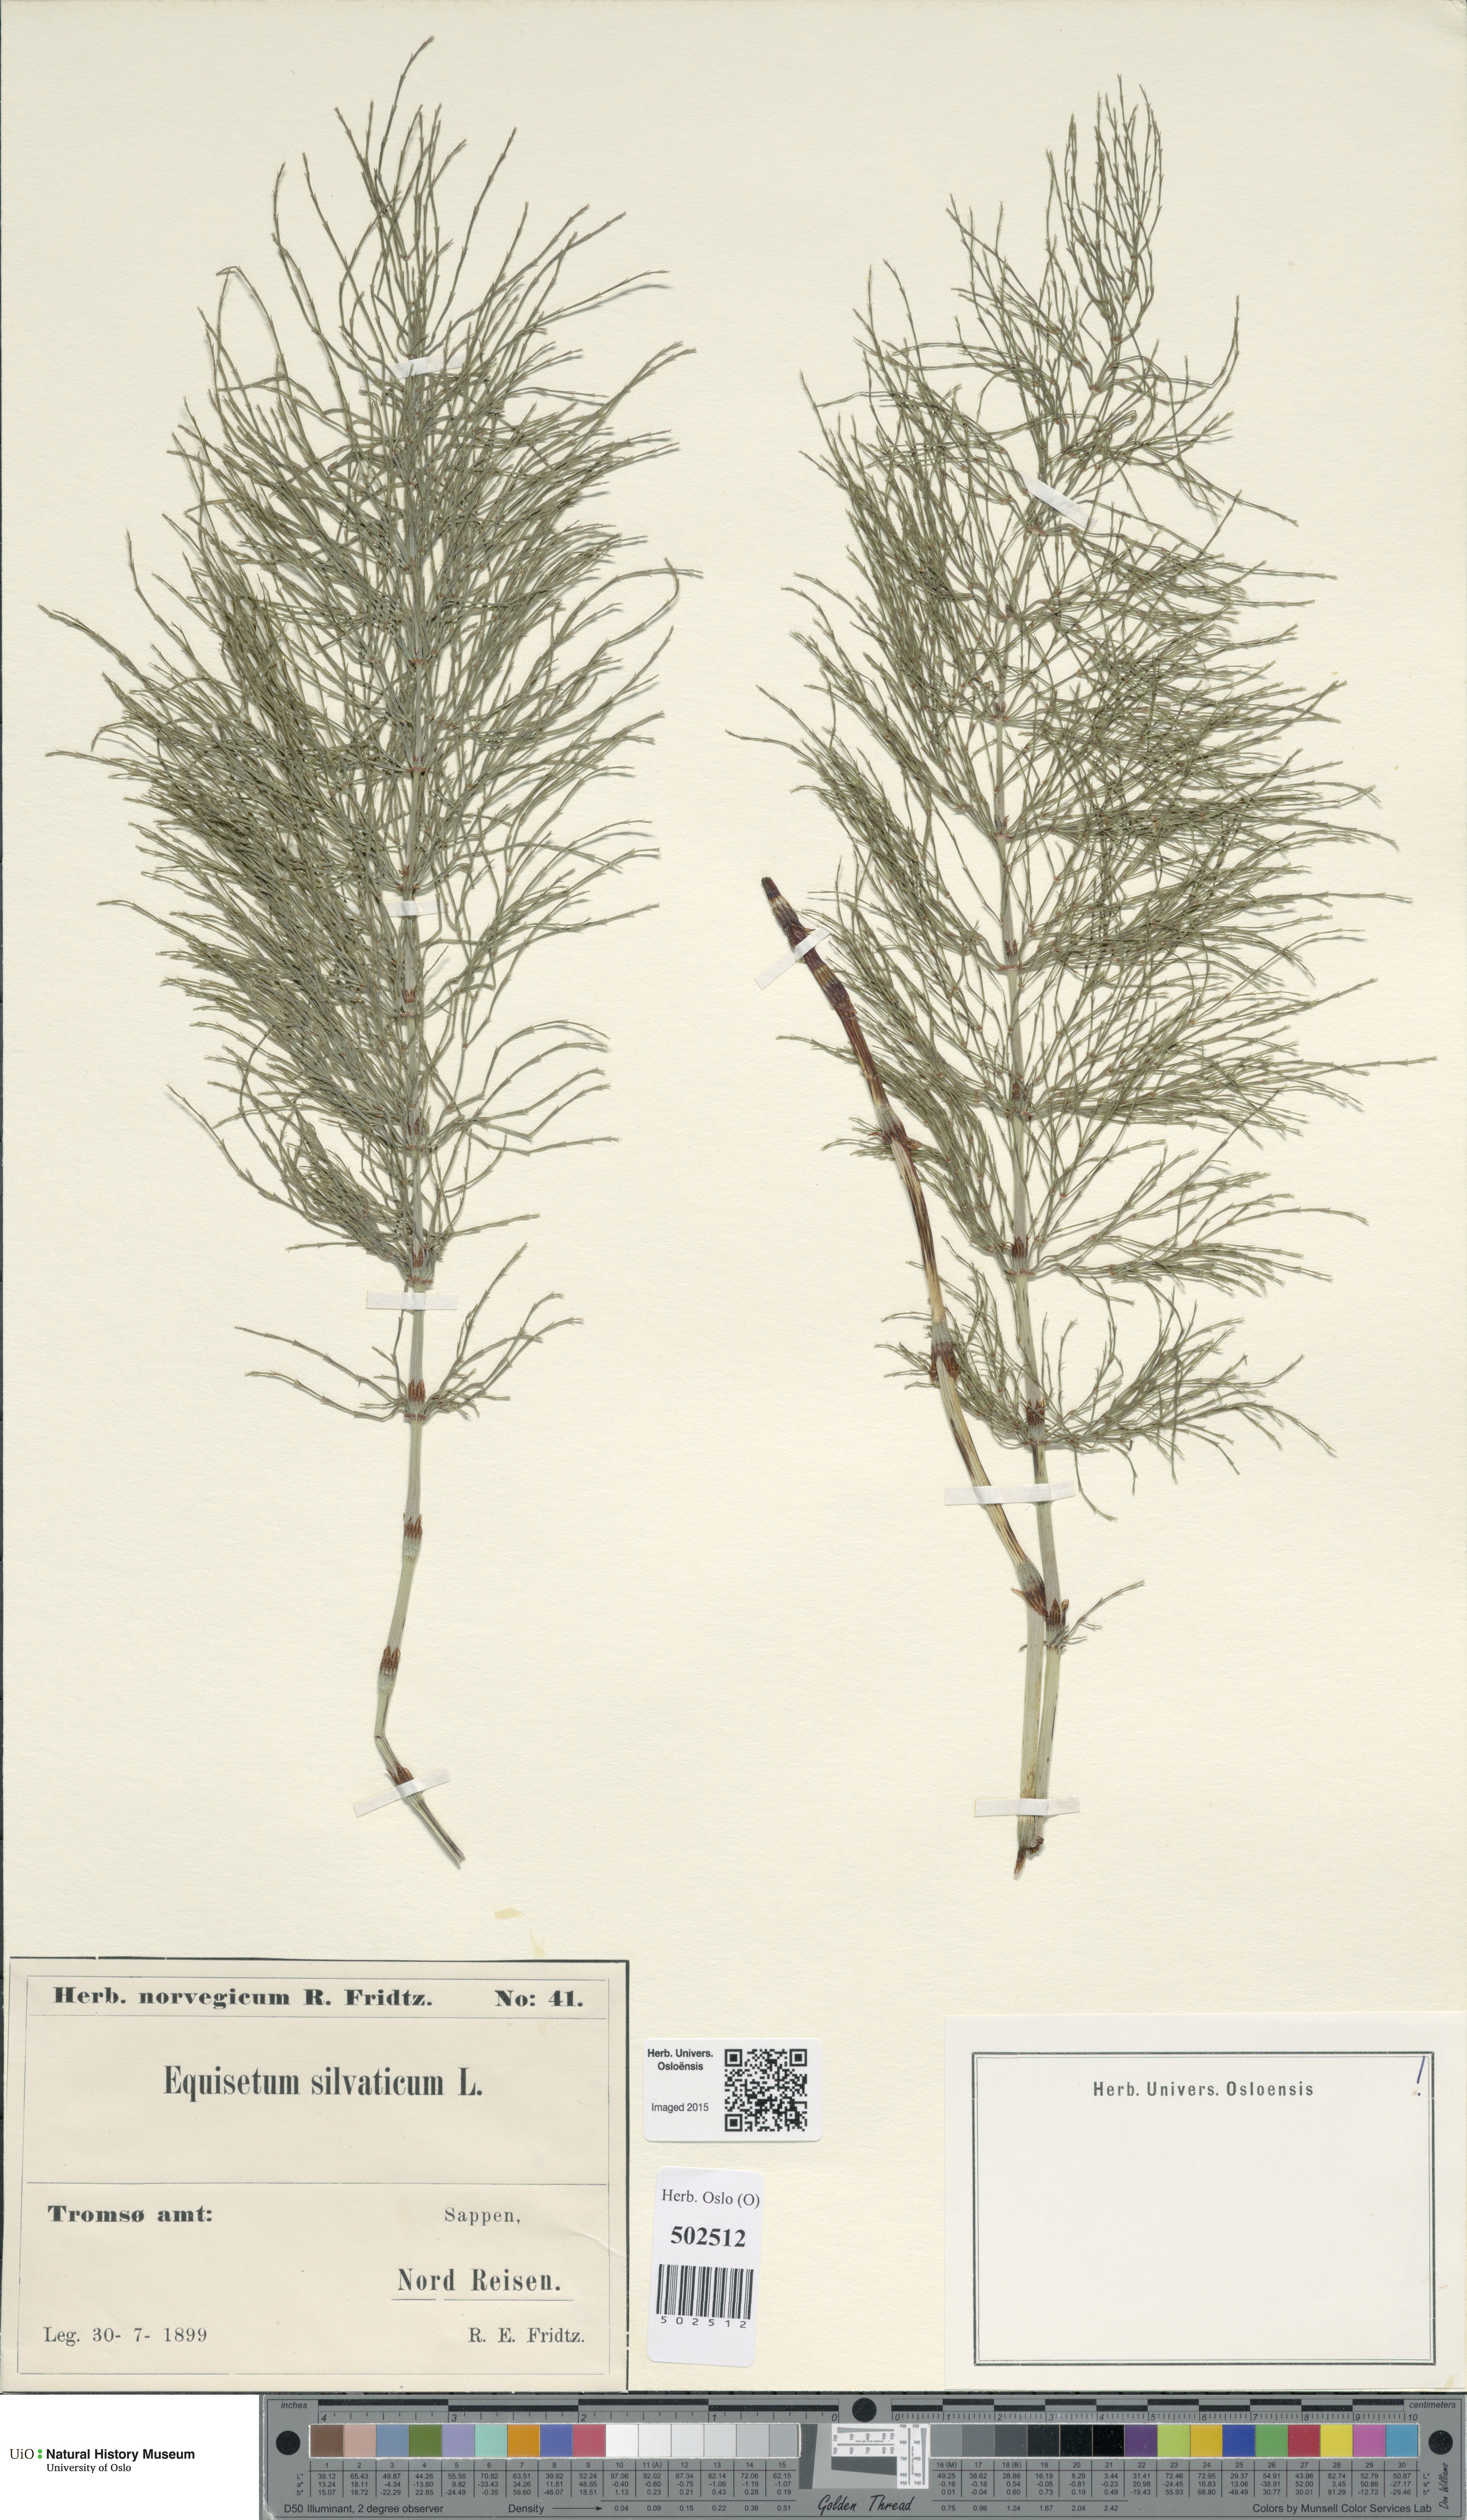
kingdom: Plantae
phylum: Tracheophyta
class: Polypodiopsida
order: Equisetales
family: Equisetaceae
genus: Equisetum
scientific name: Equisetum sylvaticum
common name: Wood horsetail
